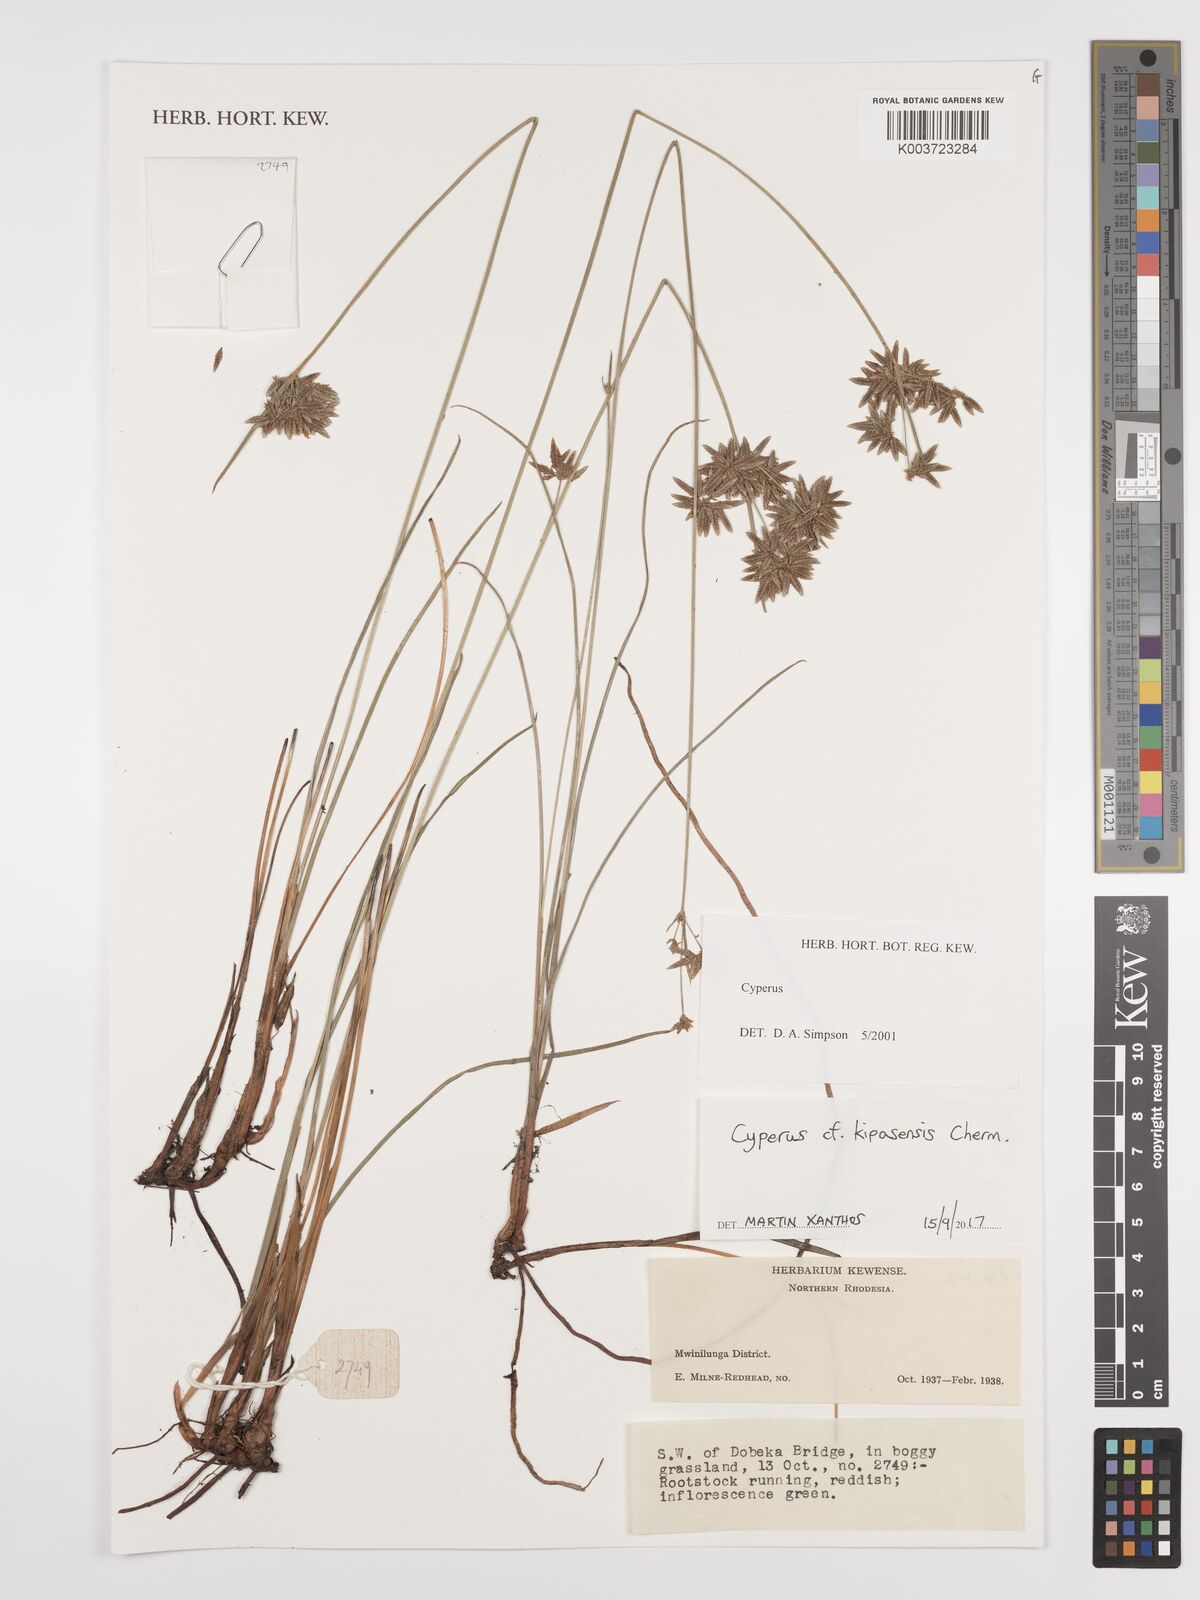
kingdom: Plantae
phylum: Tracheophyta
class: Liliopsida
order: Poales
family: Cyperaceae
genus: Cyperus
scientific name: Cyperus kipasensis
